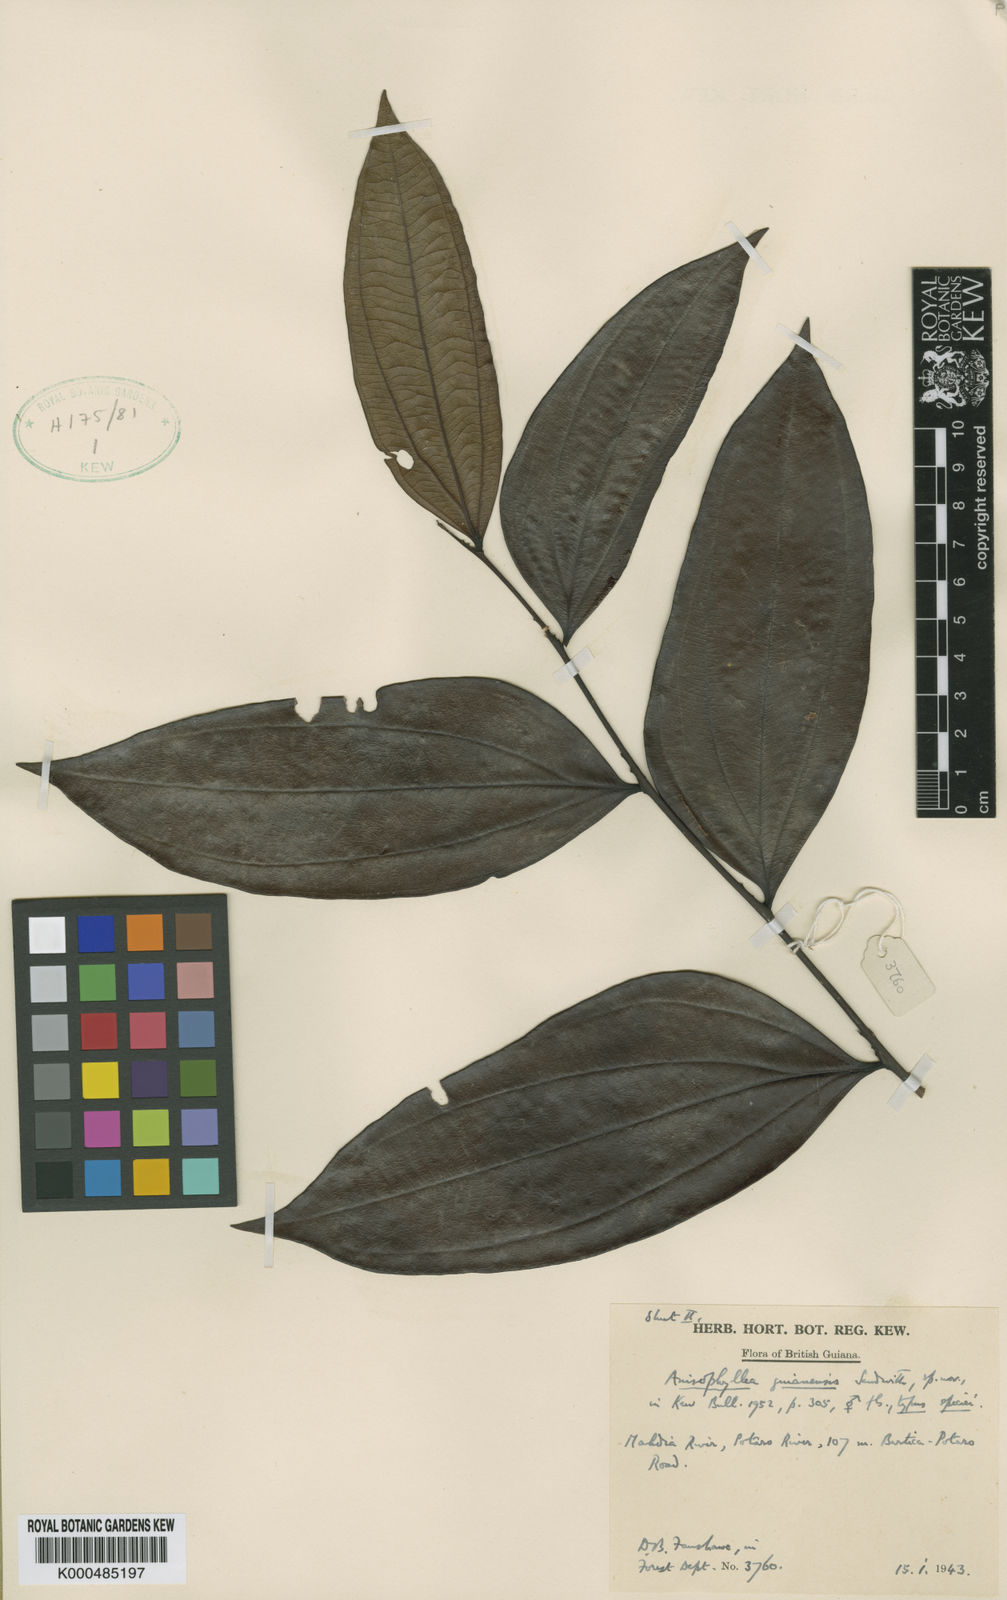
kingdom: Plantae
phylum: Tracheophyta
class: Magnoliopsida
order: Cucurbitales
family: Anisophylleaceae
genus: Anisophyllea
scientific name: Anisophyllea guianensis
